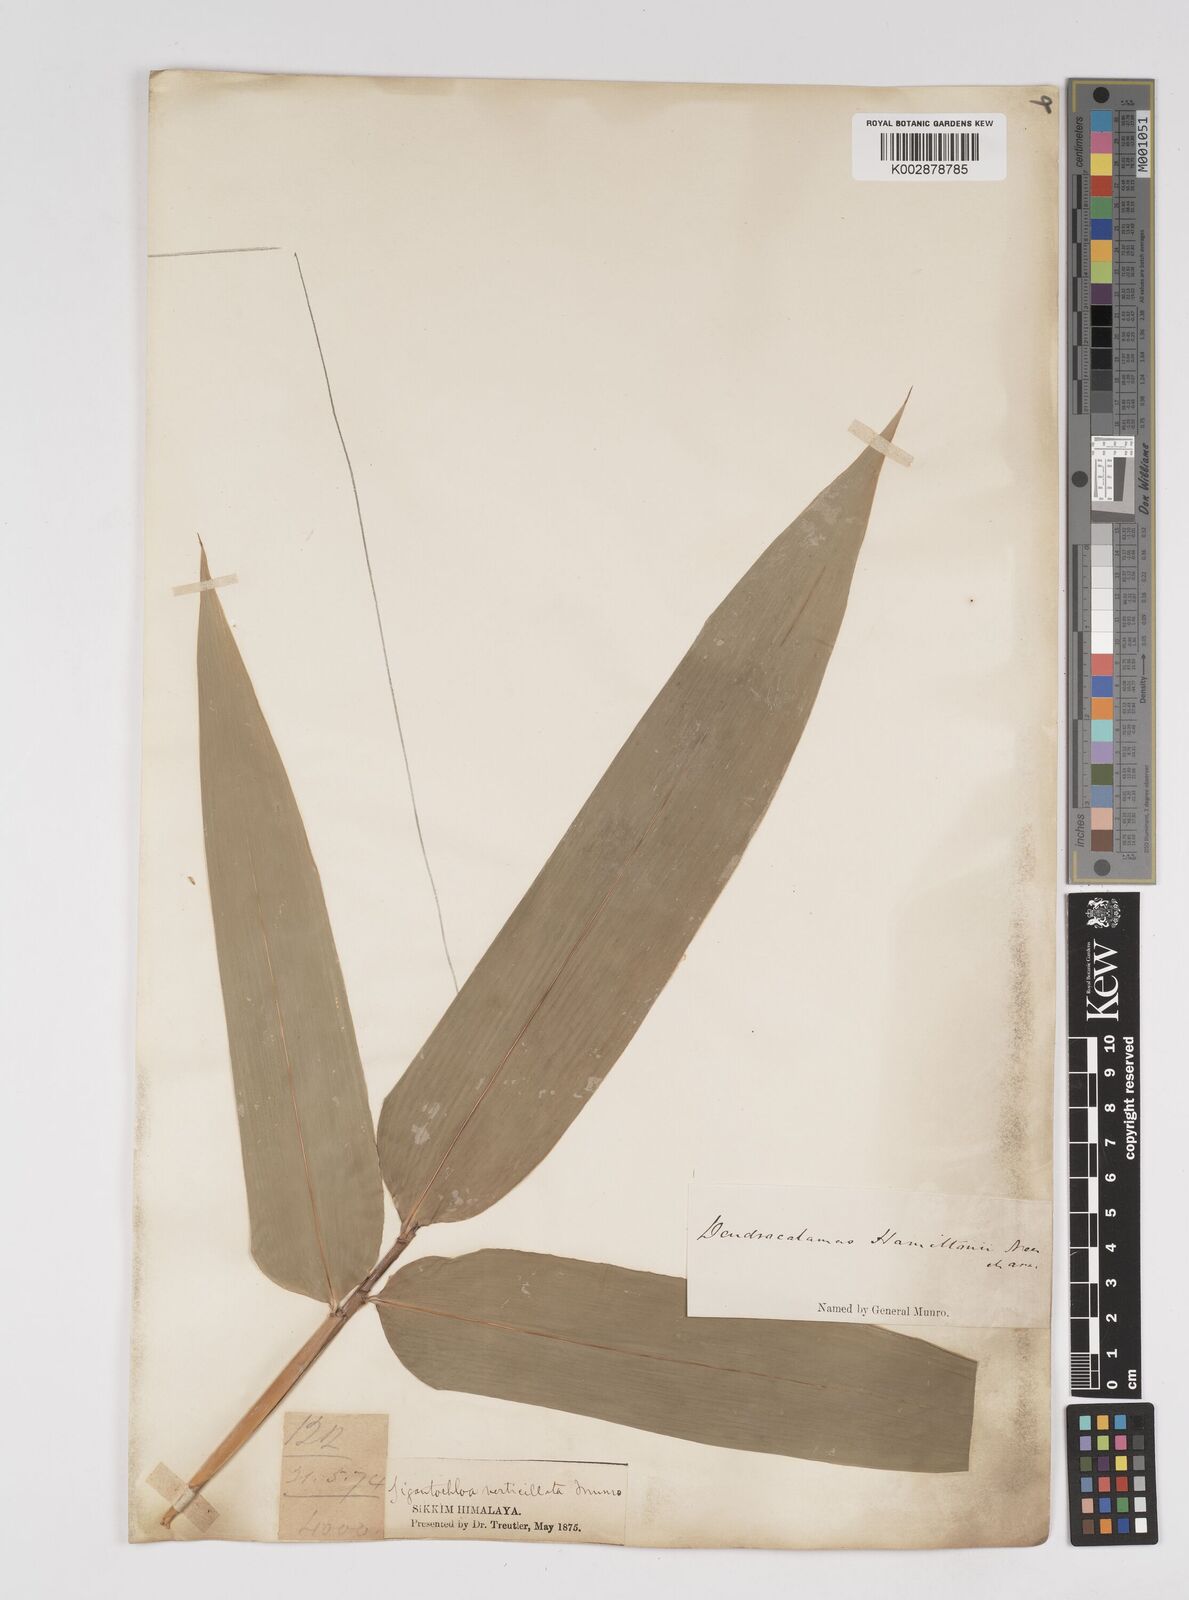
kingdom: Plantae
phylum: Tracheophyta
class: Liliopsida
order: Poales
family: Poaceae
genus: Dendrocalamus
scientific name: Dendrocalamus hamiltonii
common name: Tama bamboo
